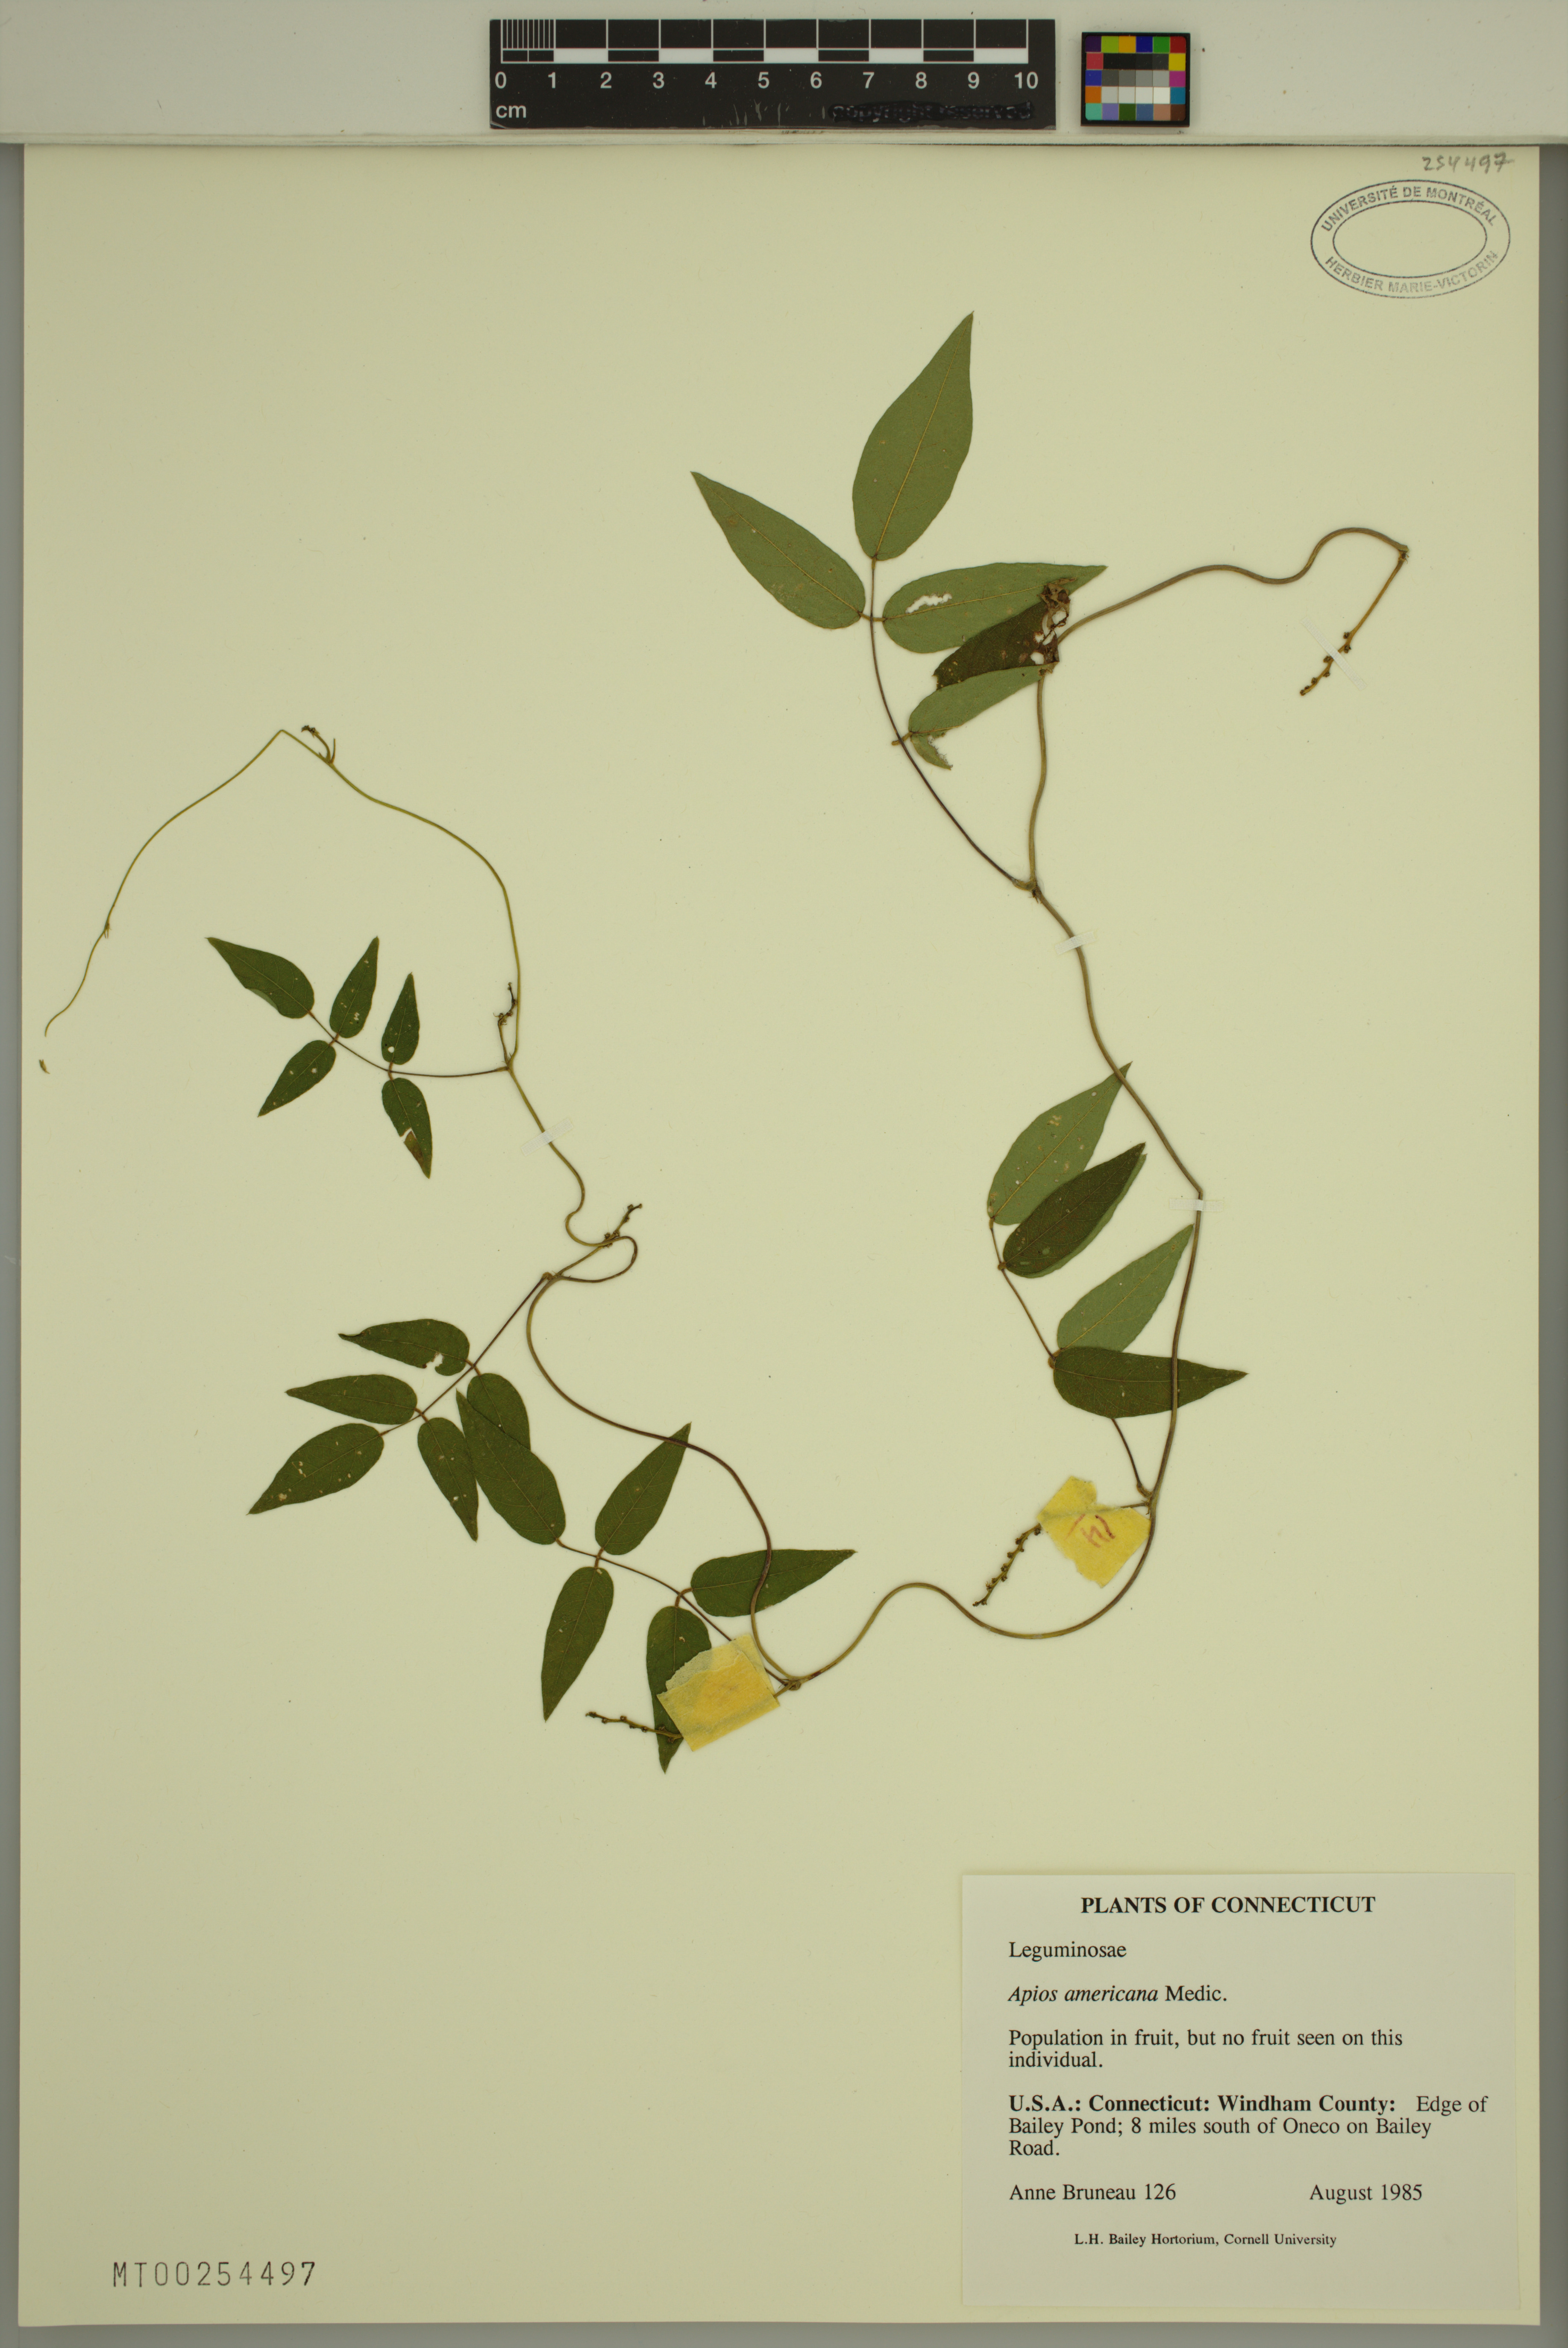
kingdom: Plantae
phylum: Tracheophyta
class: Magnoliopsida
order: Fabales
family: Fabaceae
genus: Apios
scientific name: Apios americana
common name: American potato-bean
